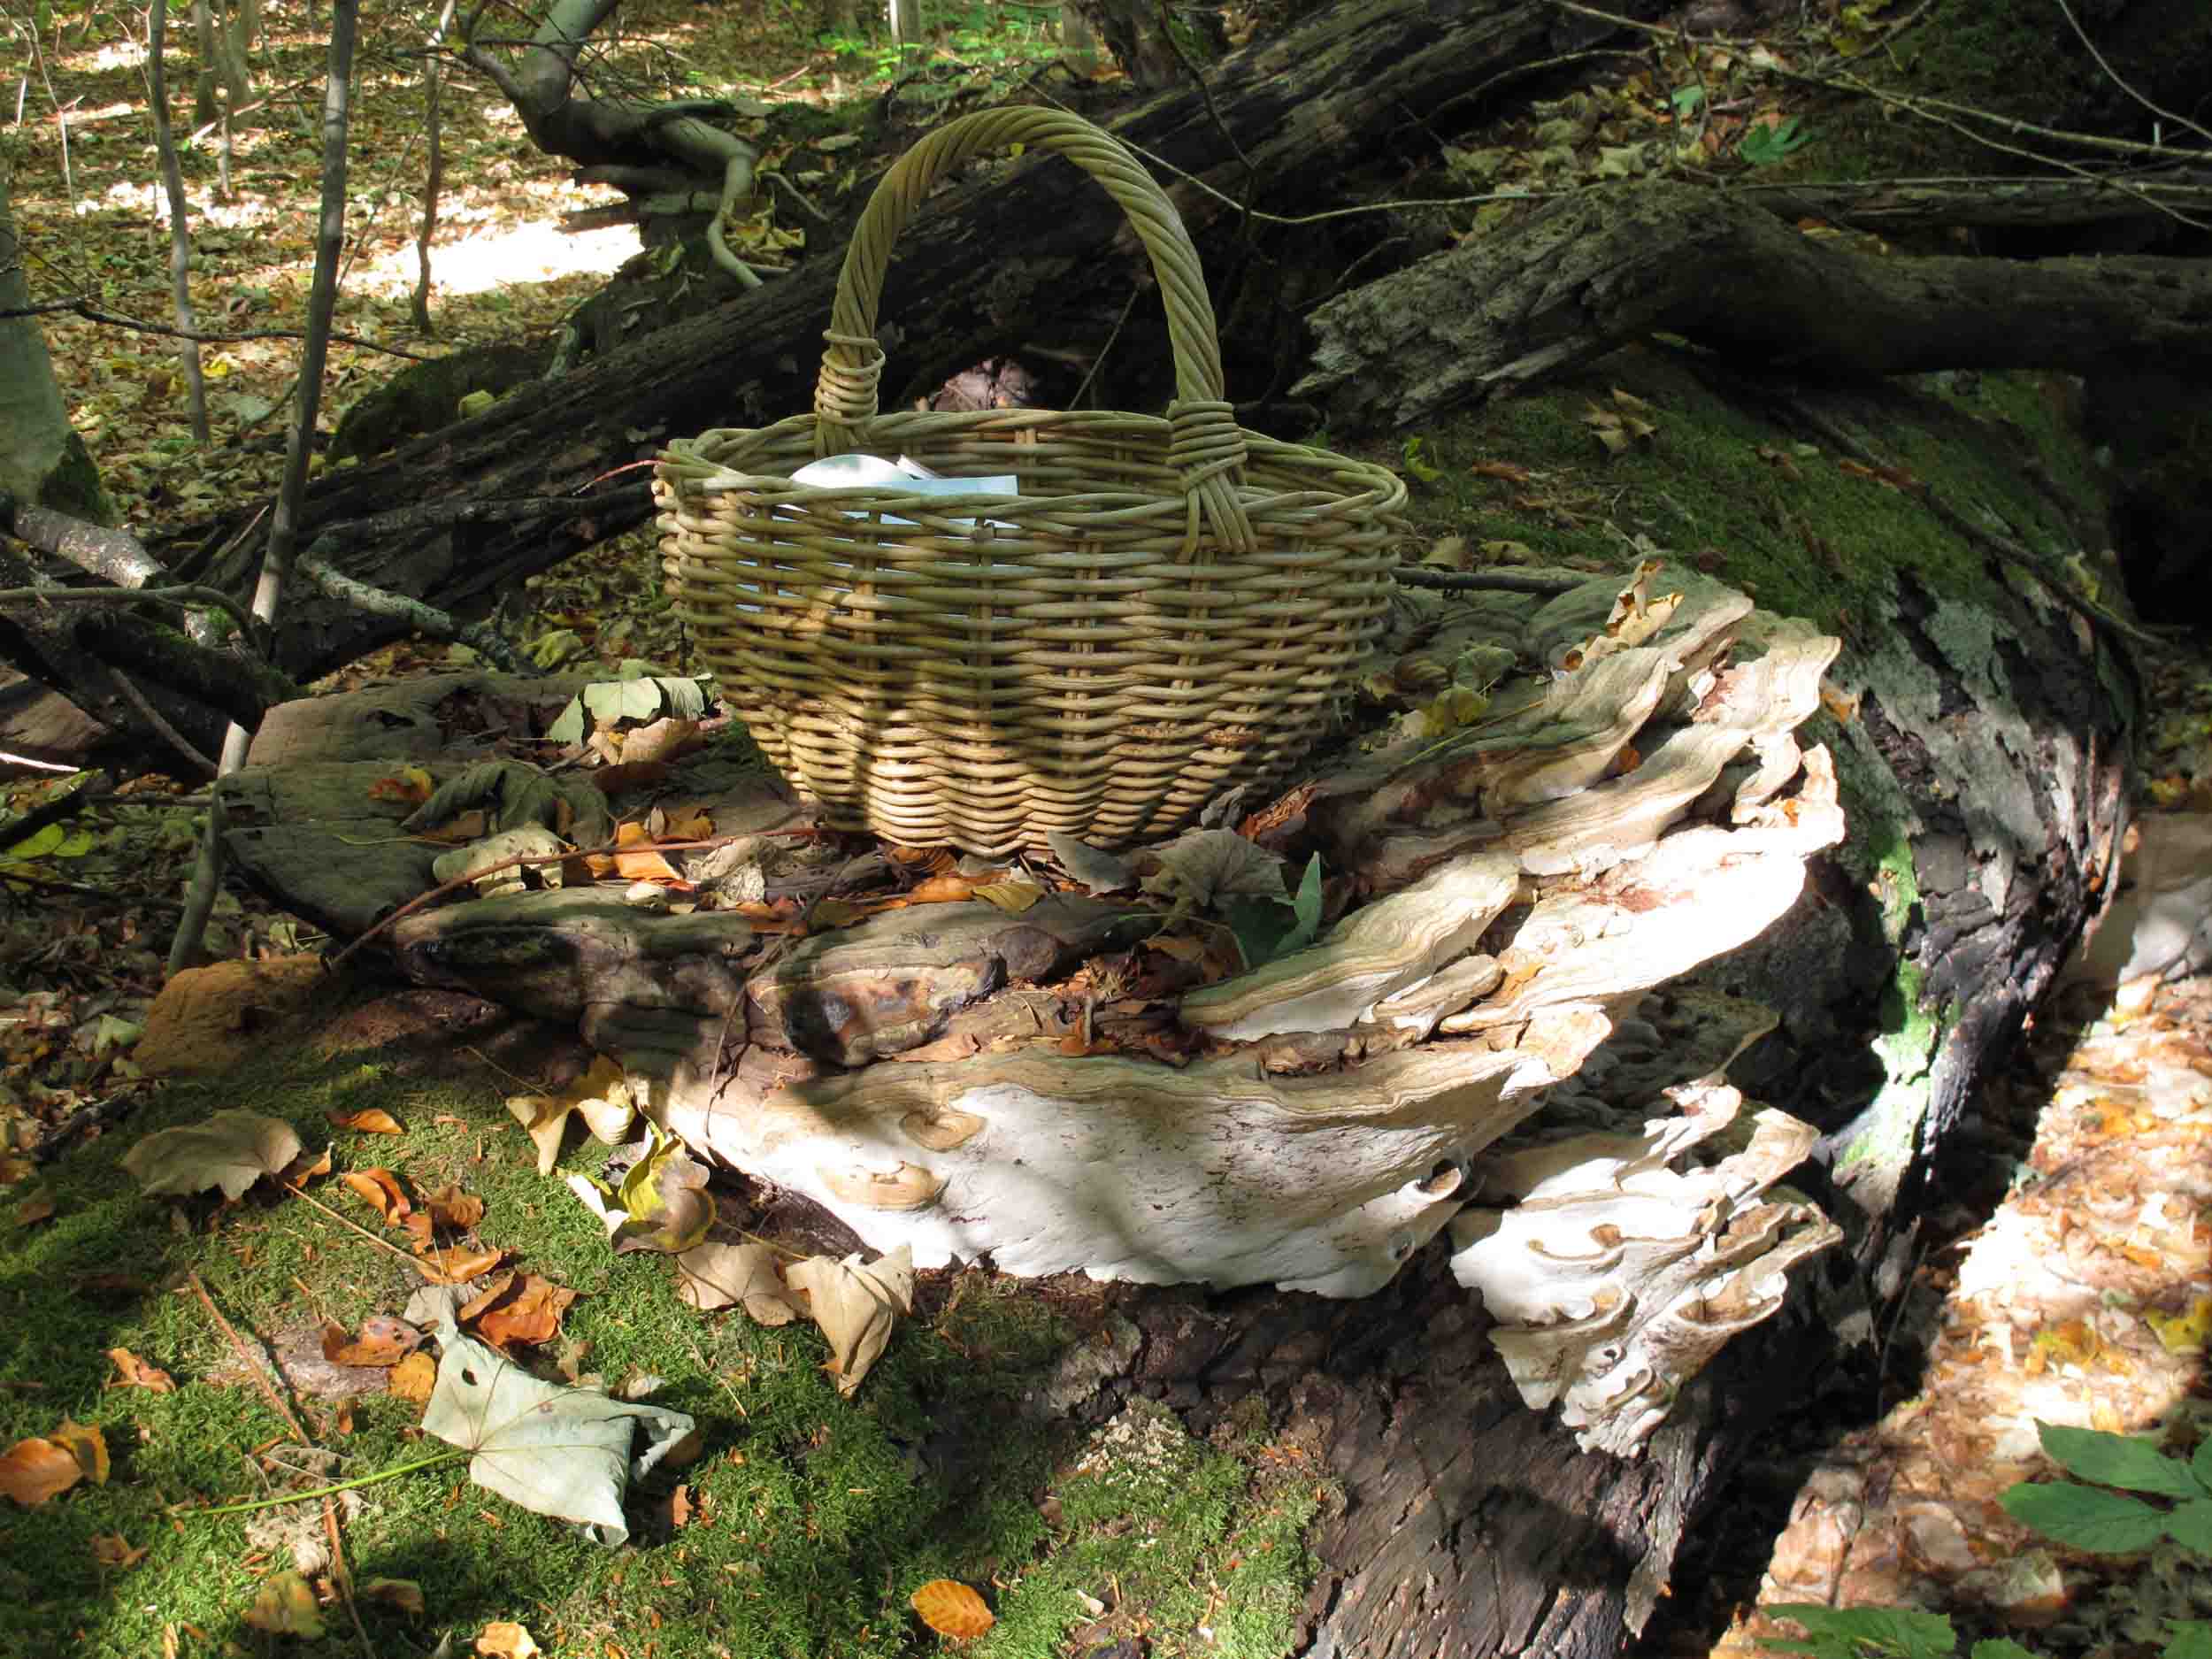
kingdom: Fungi
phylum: Basidiomycota
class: Agaricomycetes
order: Polyporales
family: Polyporaceae
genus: Ganoderma
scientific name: Ganoderma applanatum
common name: flad lakporesvamp
